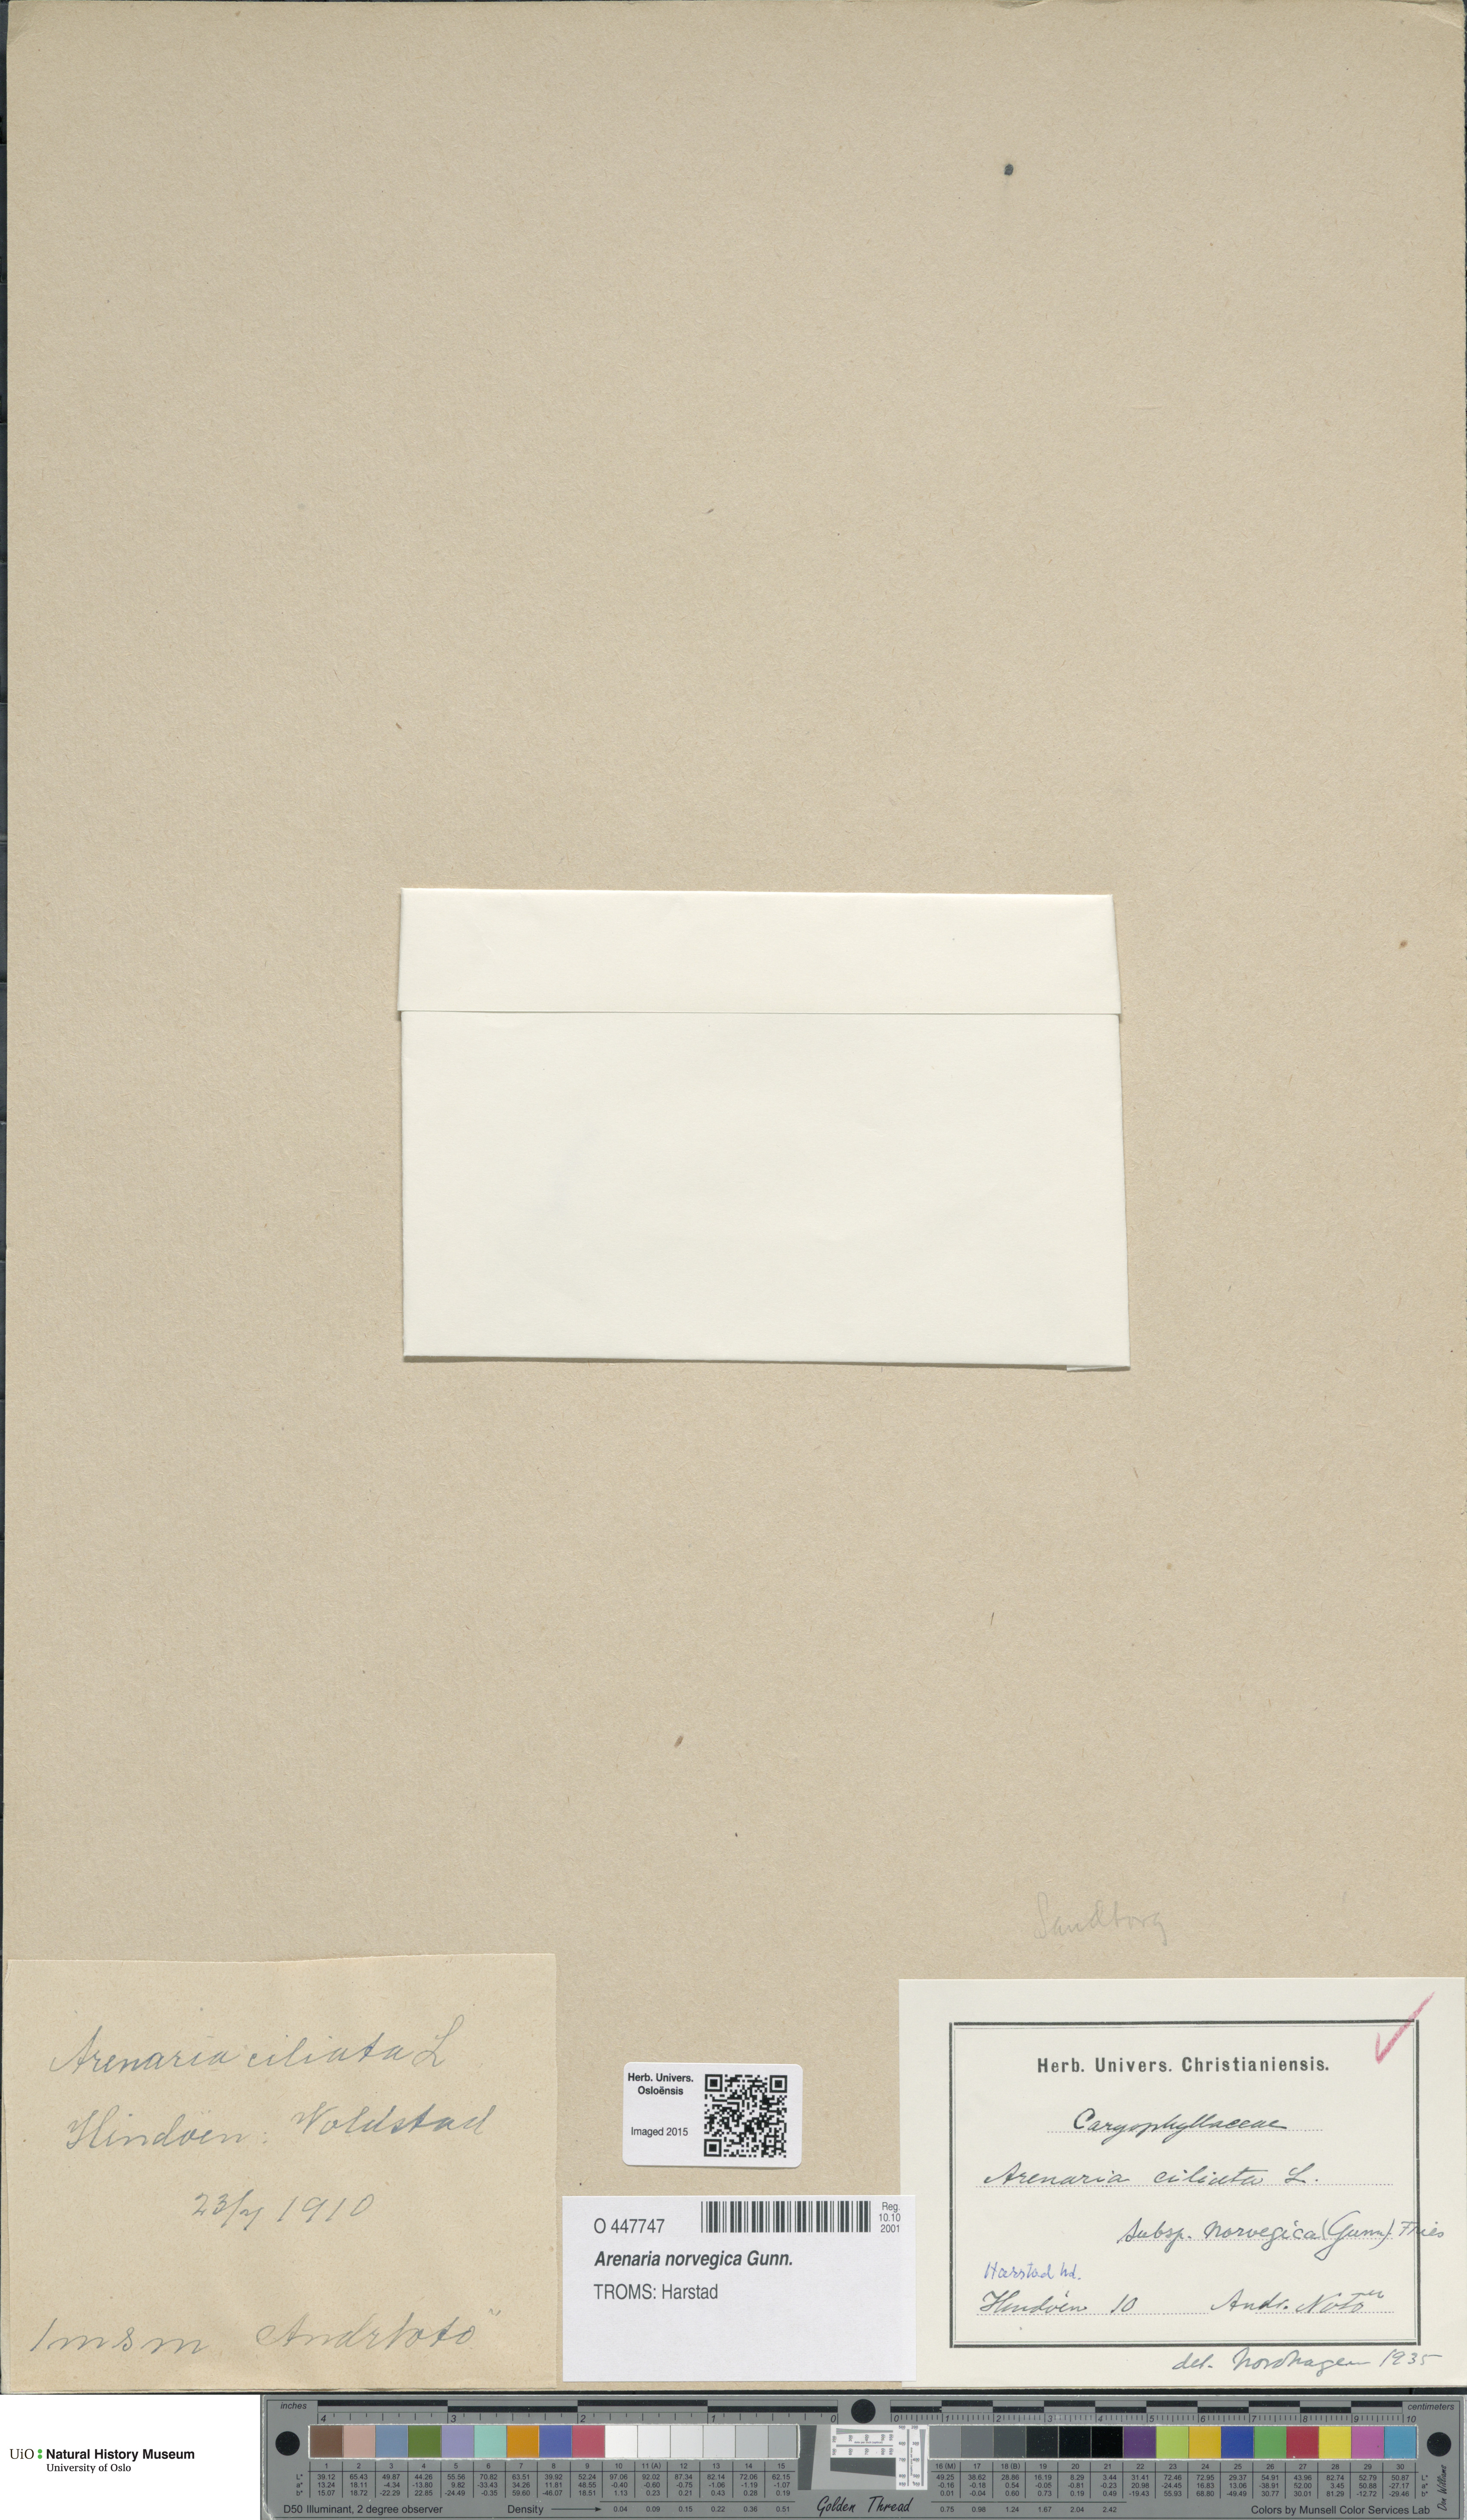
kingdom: Plantae
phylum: Tracheophyta
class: Magnoliopsida
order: Caryophyllales
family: Caryophyllaceae
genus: Arenaria
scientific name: Arenaria norvegica
